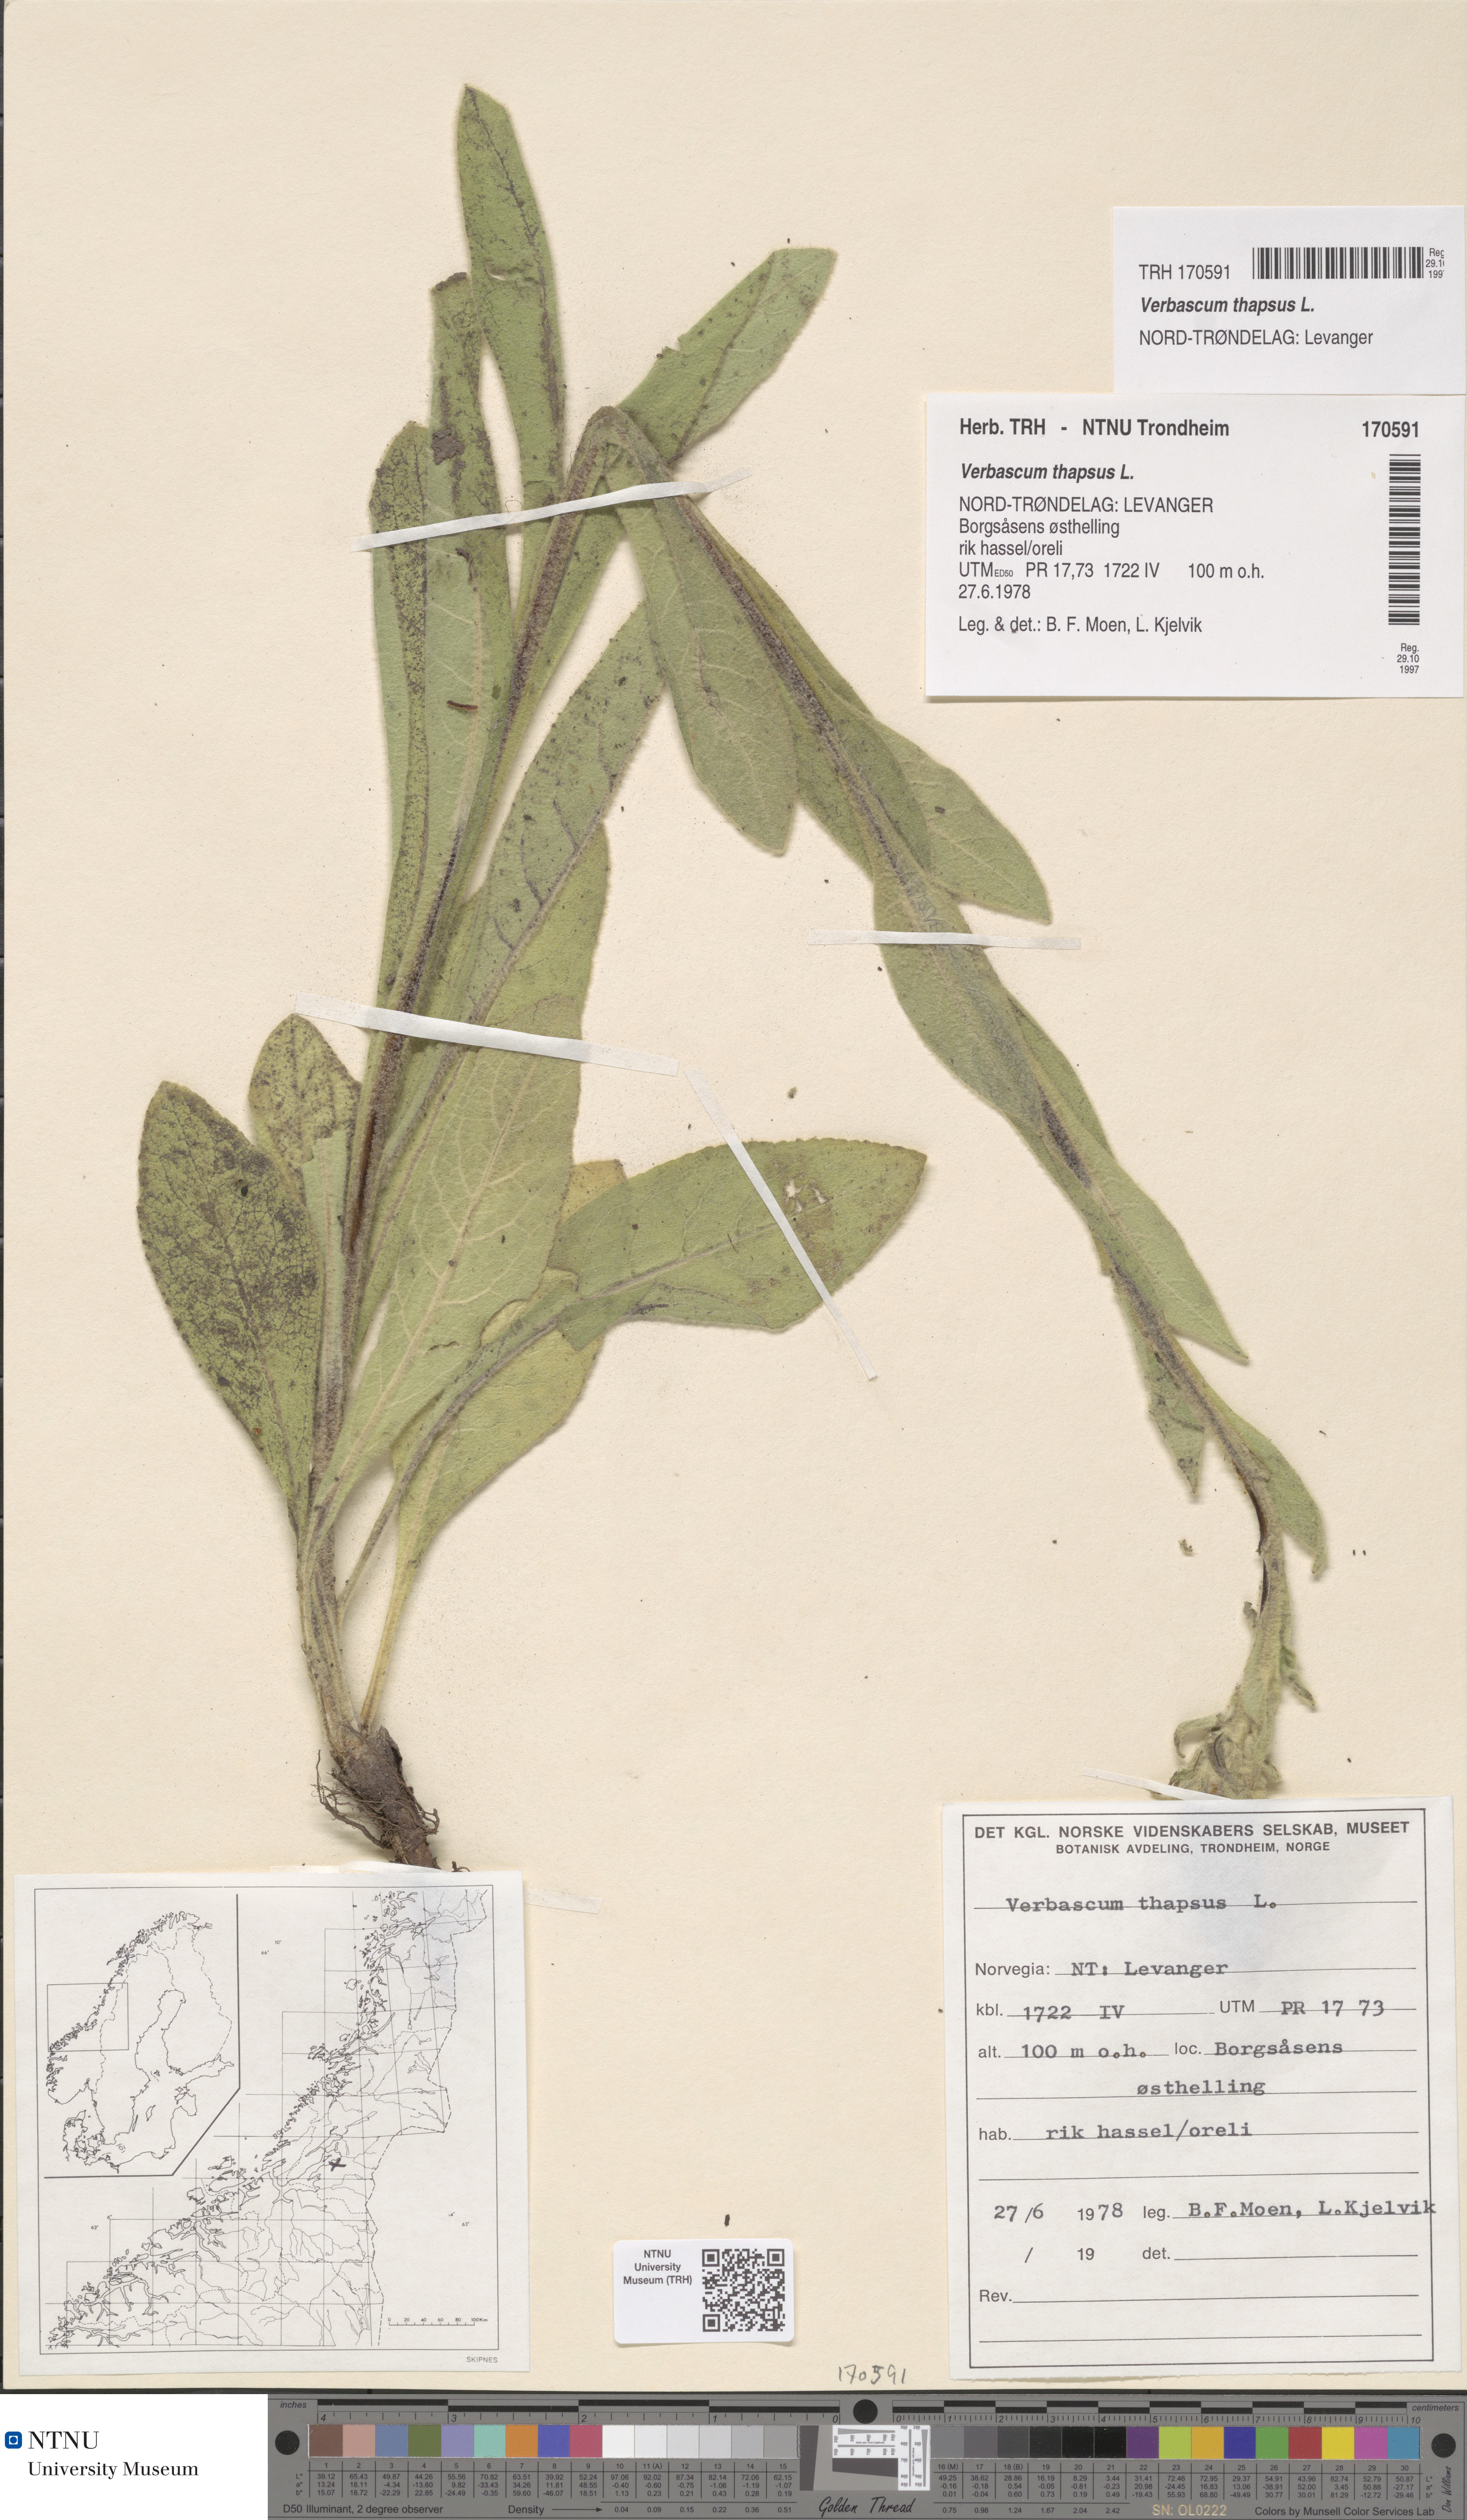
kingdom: Plantae
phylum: Tracheophyta
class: Magnoliopsida
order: Lamiales
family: Scrophulariaceae
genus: Verbascum
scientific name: Verbascum thapsus
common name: Common mullein
